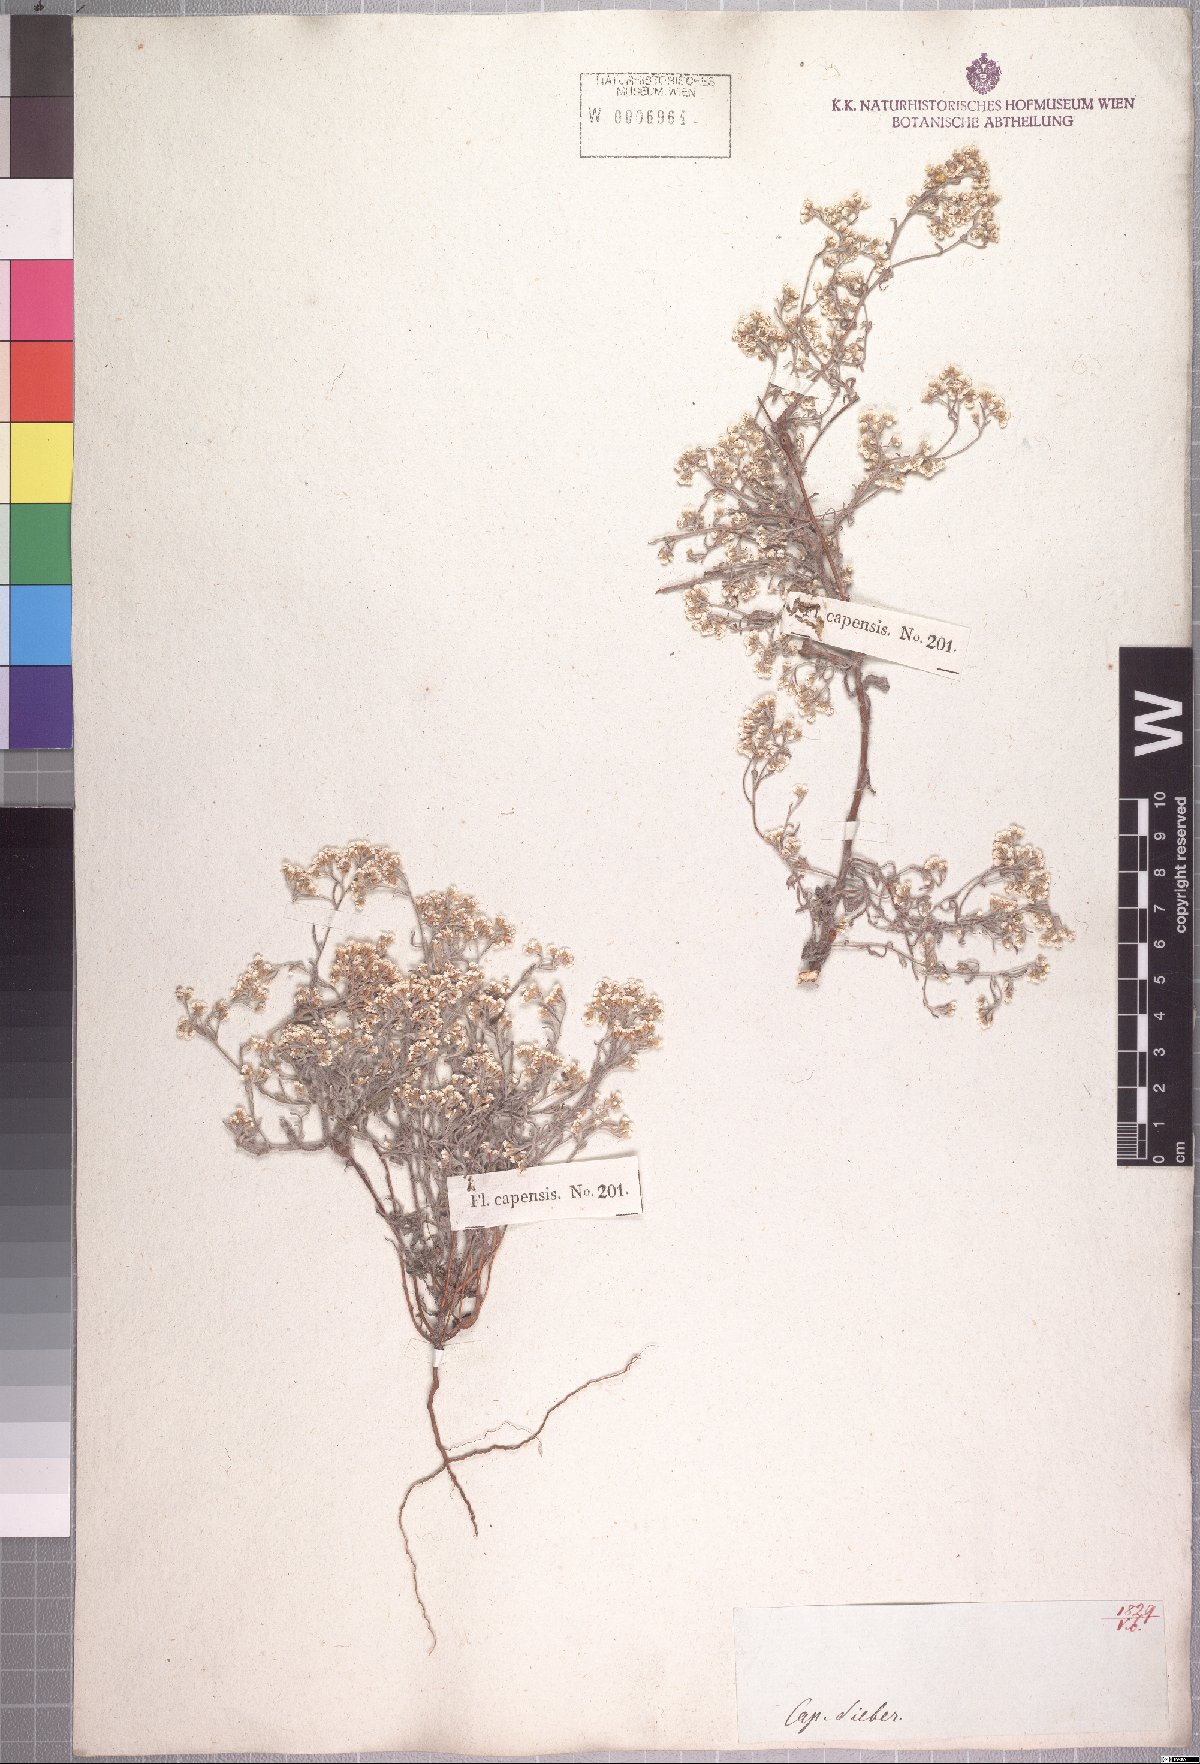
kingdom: Plantae
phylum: Tracheophyta
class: Magnoliopsida
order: Asterales
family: Asteraceae
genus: Helichrysum
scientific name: Helichrysum indicum
